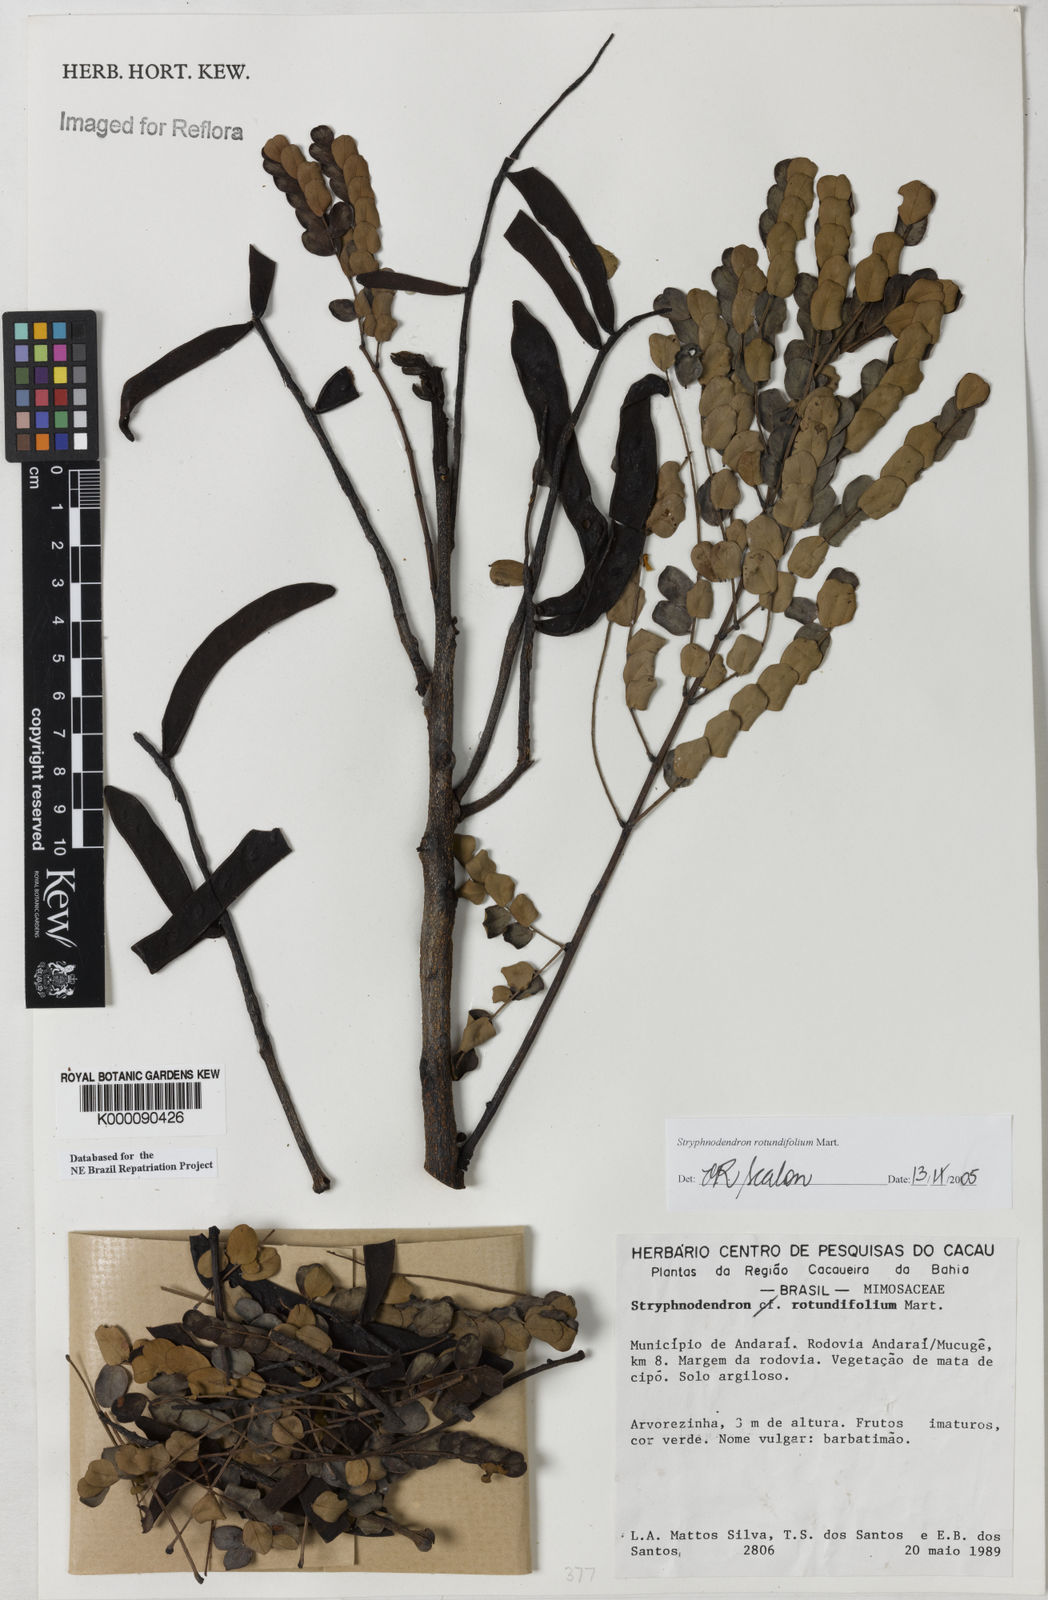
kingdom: Plantae
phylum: Tracheophyta
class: Magnoliopsida
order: Fabales
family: Fabaceae
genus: Stryphnodendron
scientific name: Stryphnodendron rotundifolium
